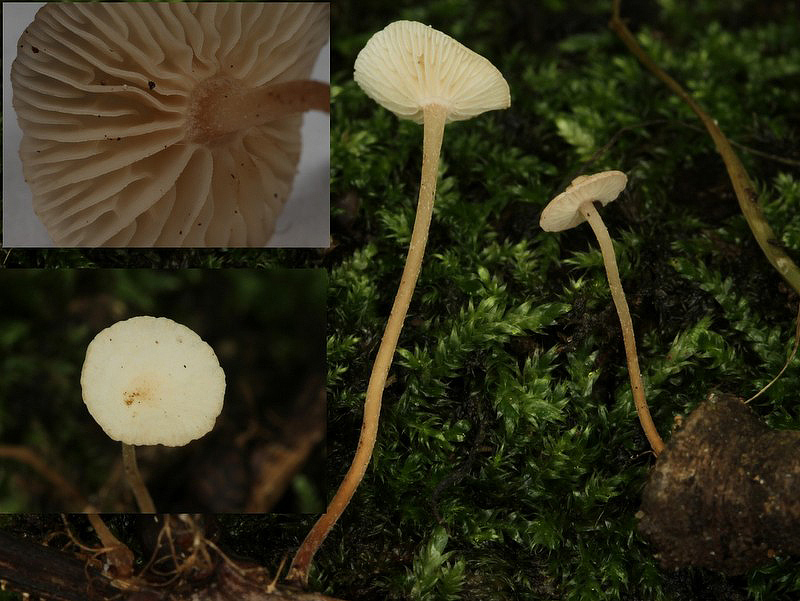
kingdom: Fungi
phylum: Basidiomycota
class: Agaricomycetes
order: Agaricales
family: Omphalotaceae
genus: Collybiopsis
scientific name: Collybiopsis vaillantii
